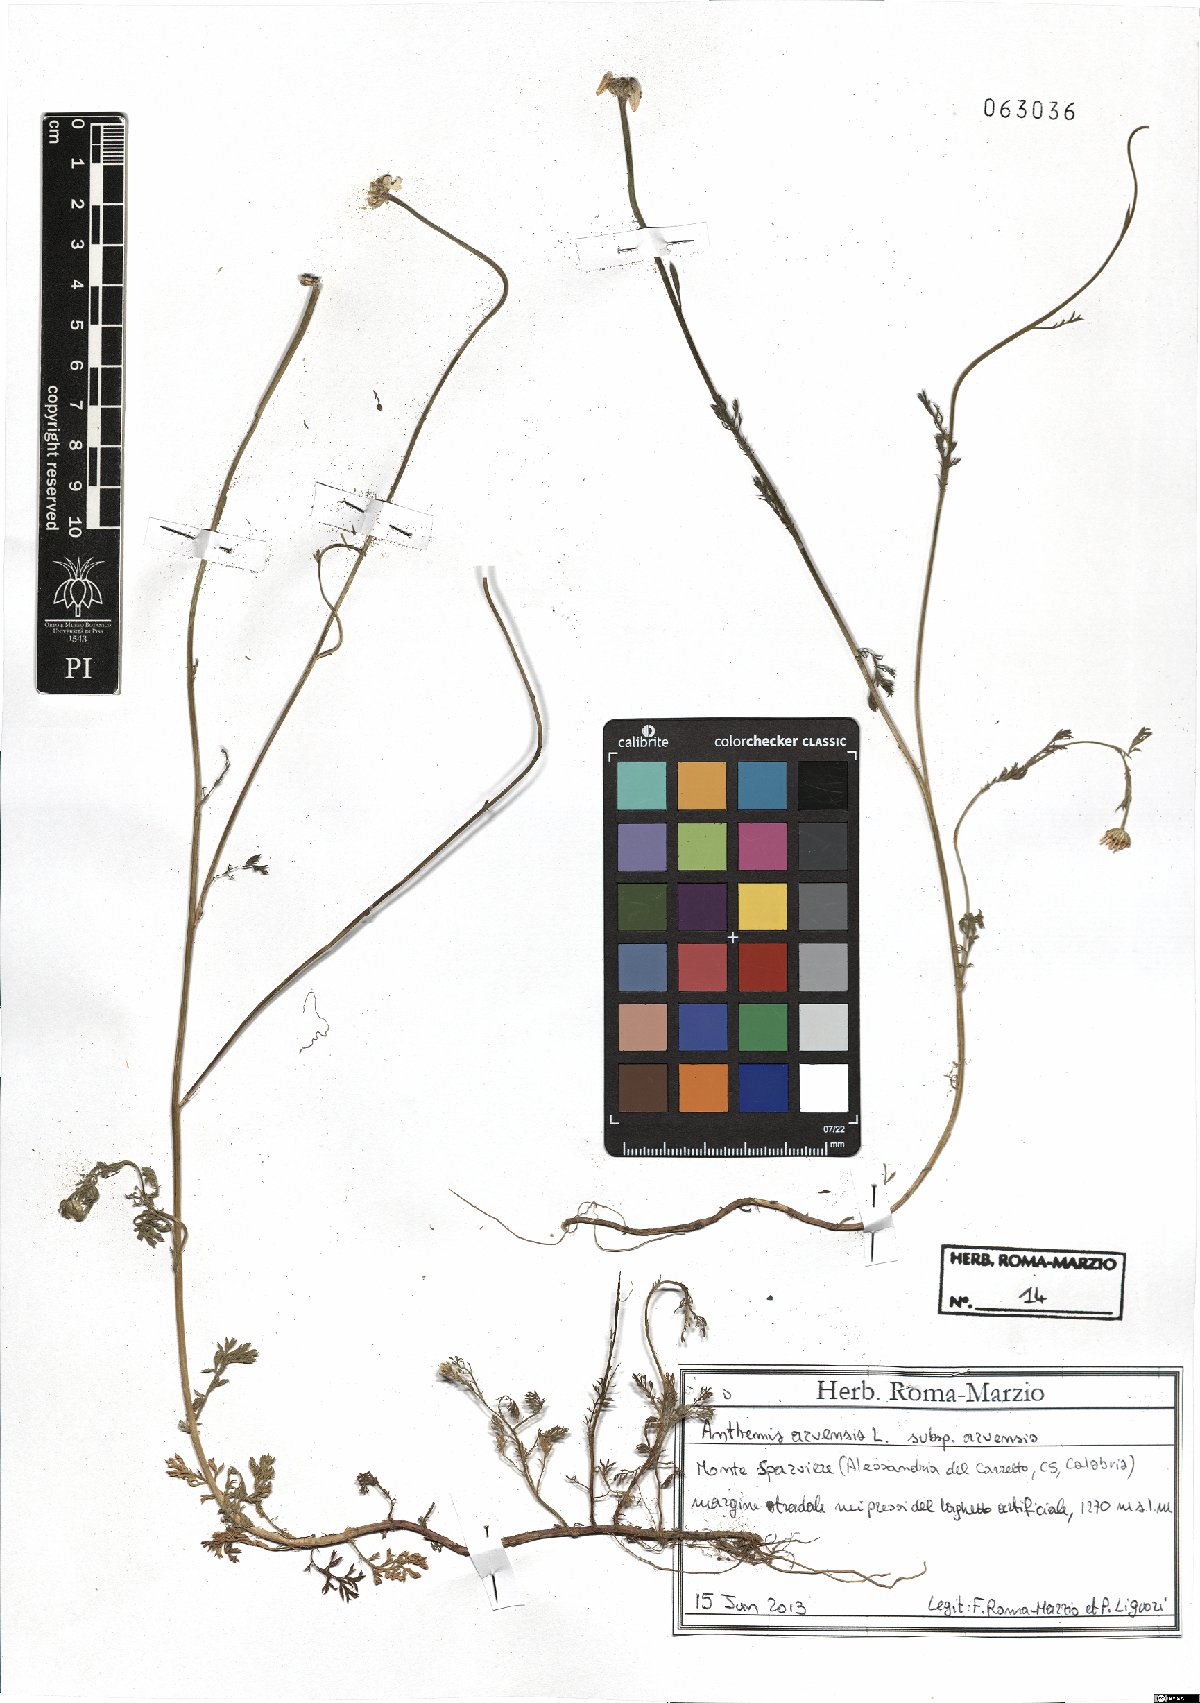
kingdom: Plantae
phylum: Tracheophyta
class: Magnoliopsida
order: Asterales
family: Asteraceae
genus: Anthemis
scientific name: Anthemis arvensis
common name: Corn chamomile
